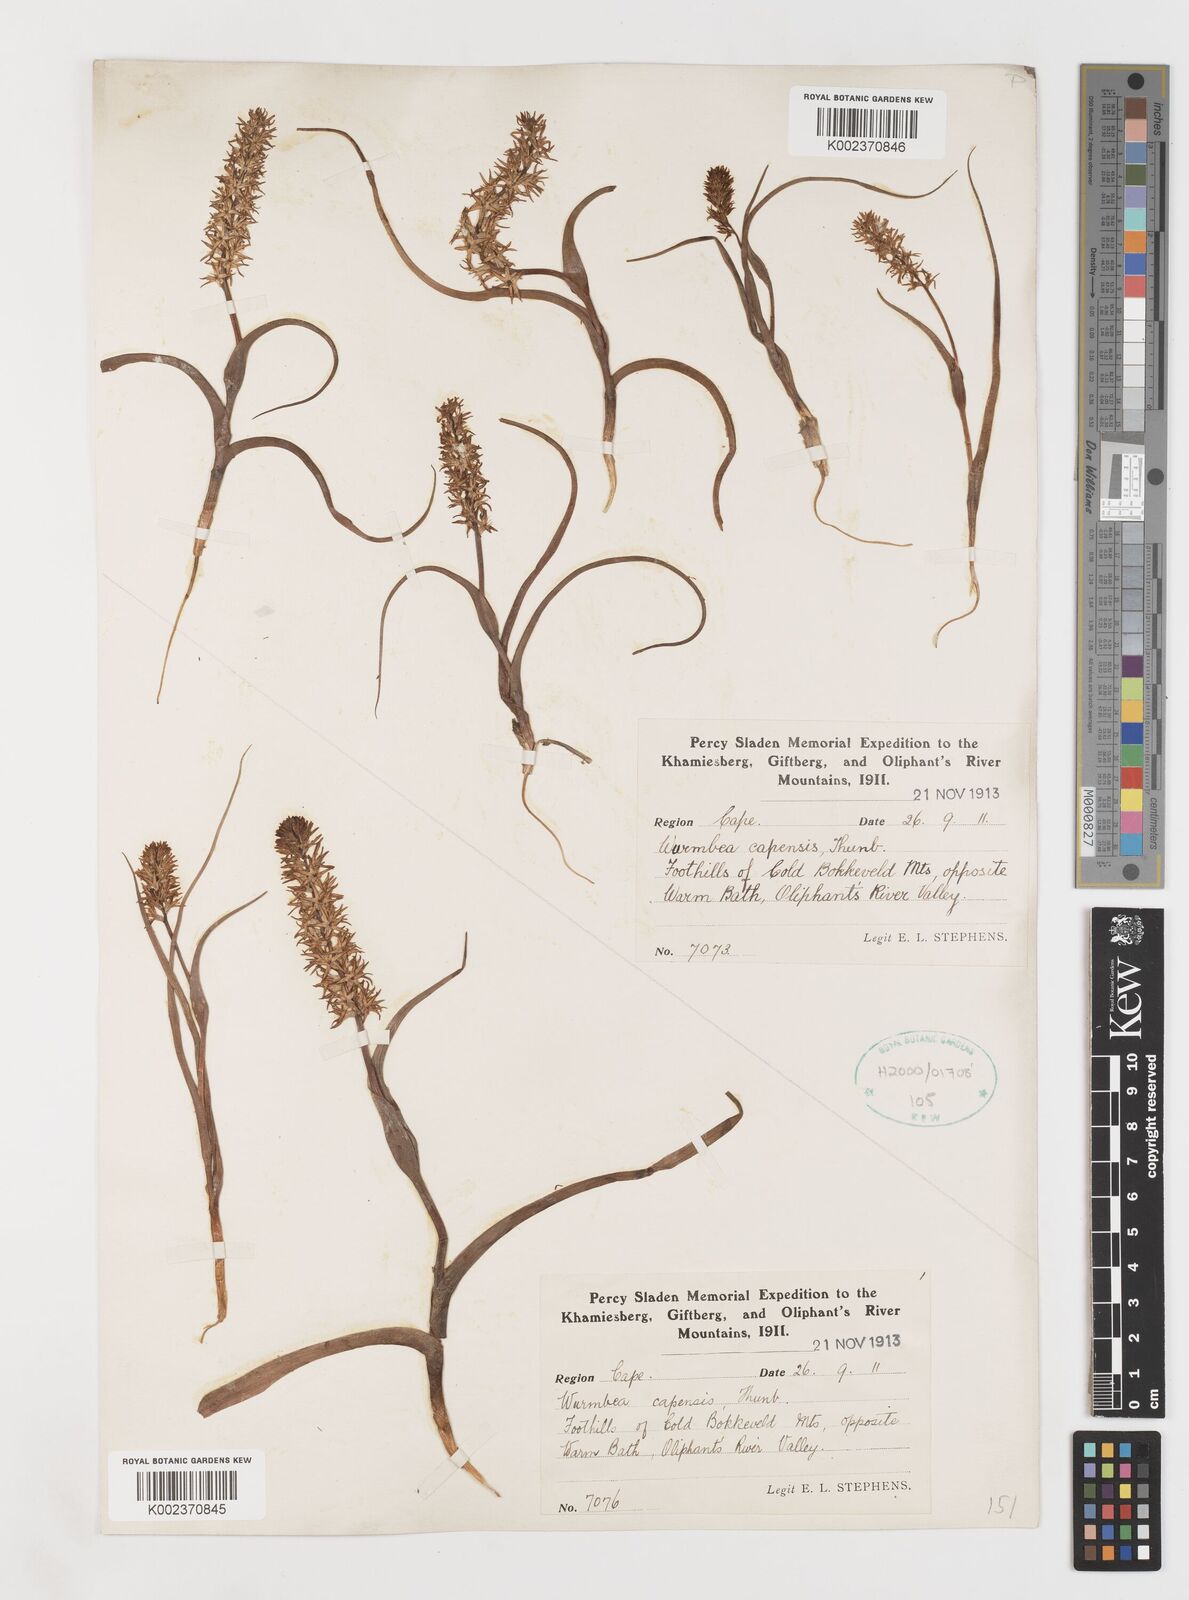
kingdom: Plantae
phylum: Tracheophyta
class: Liliopsida
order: Liliales
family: Colchicaceae
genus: Wurmbea
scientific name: Wurmbea capensis
